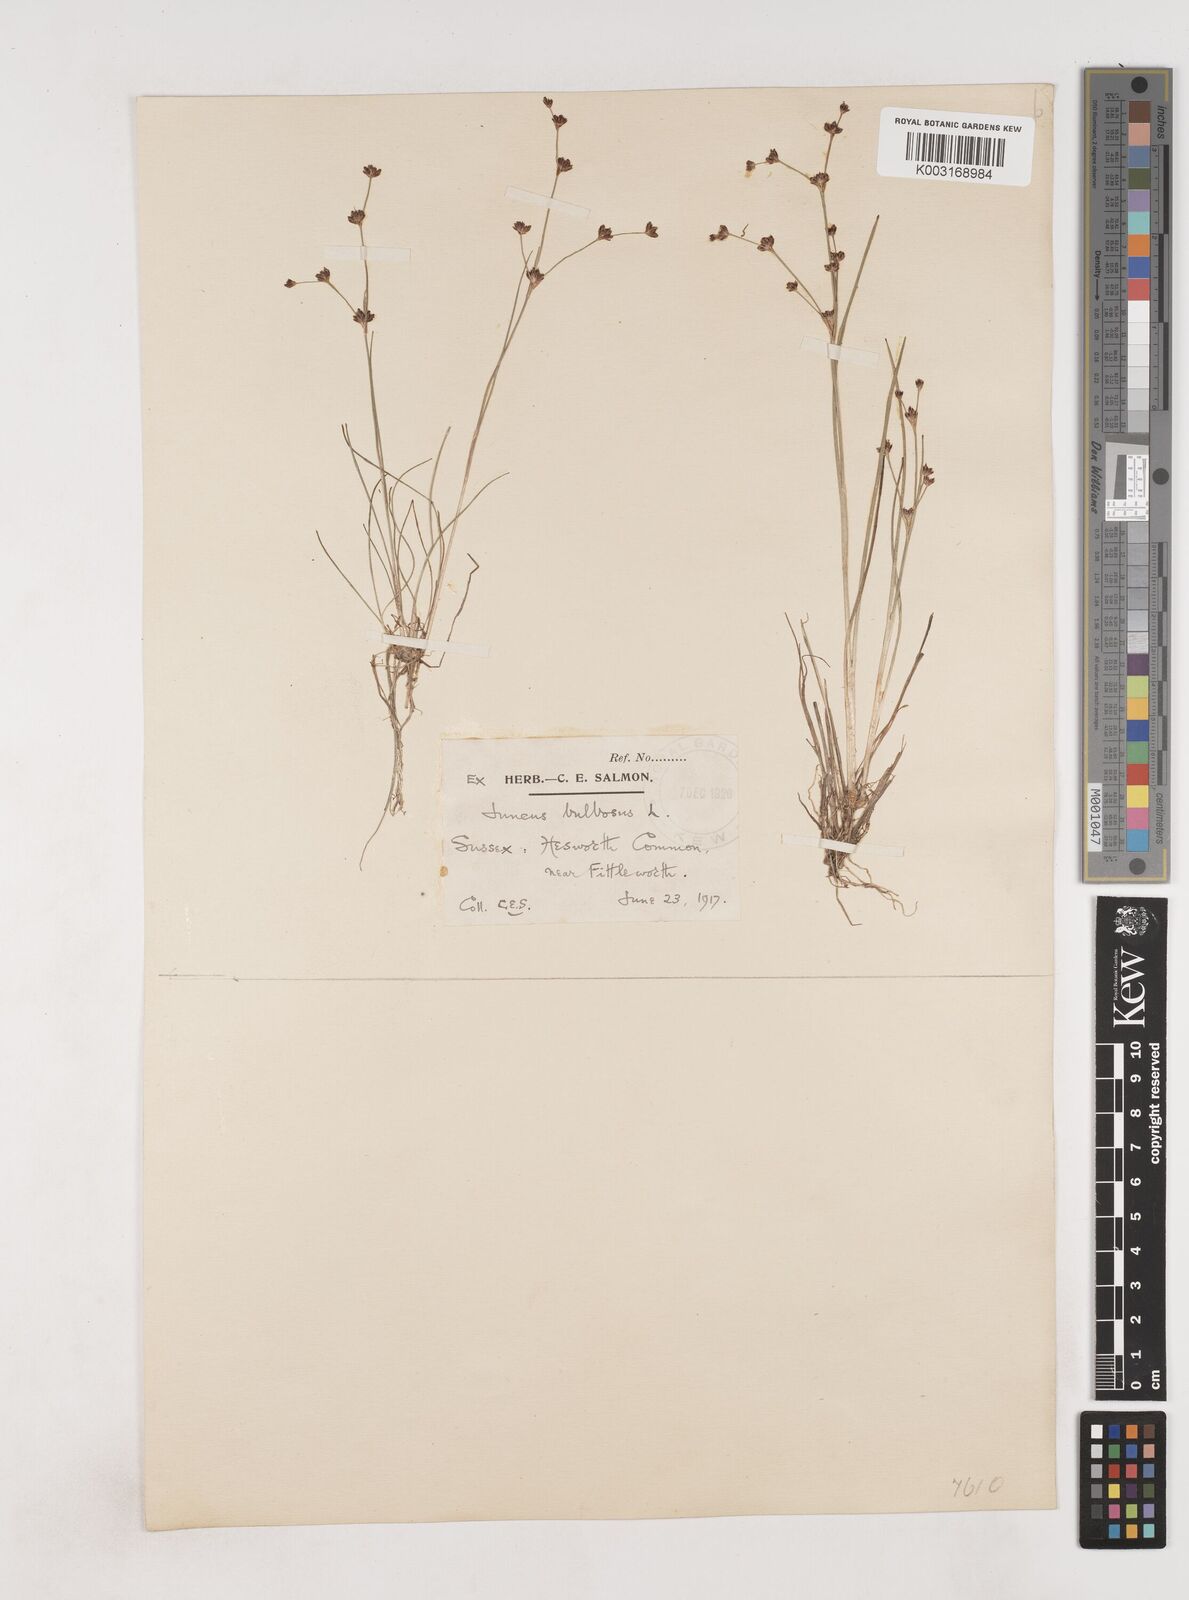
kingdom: Plantae
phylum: Tracheophyta
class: Liliopsida
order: Poales
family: Juncaceae
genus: Juncus
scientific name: Juncus bulbosus
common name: Bulbous rush
